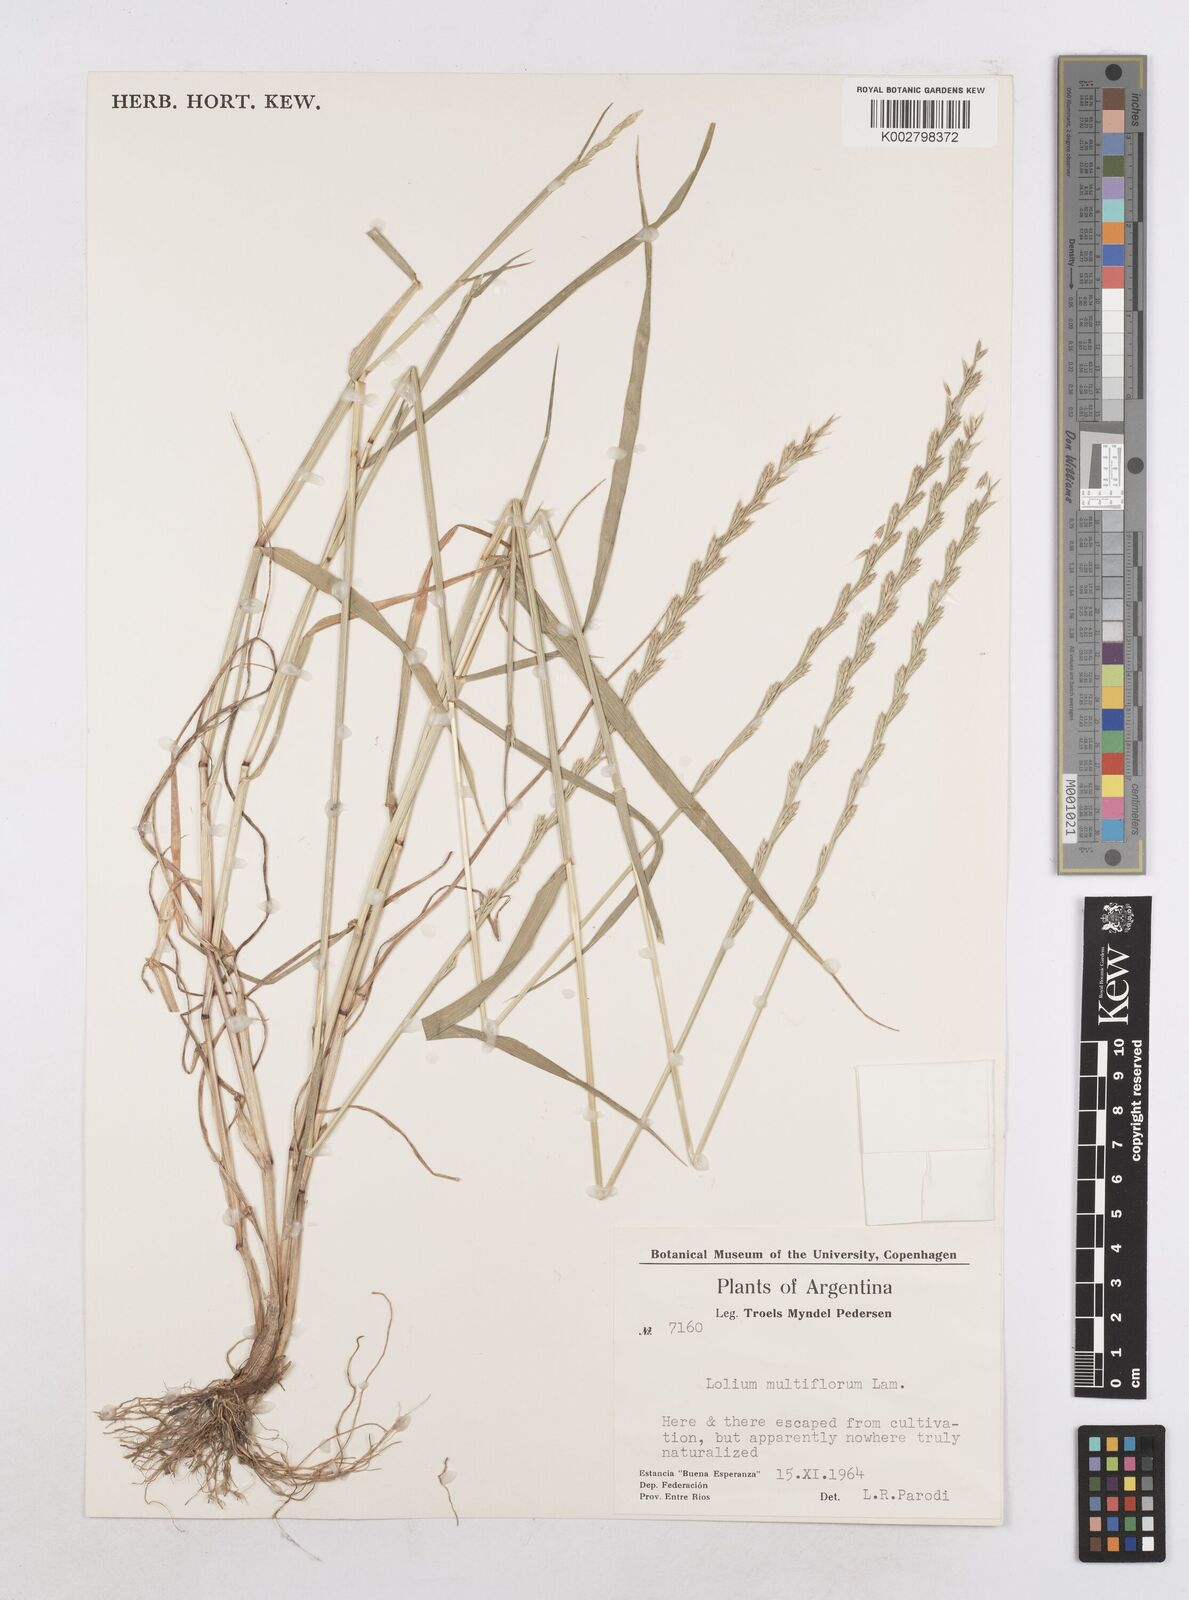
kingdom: Plantae
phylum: Tracheophyta
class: Liliopsida
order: Poales
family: Poaceae
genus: Lolium
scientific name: Lolium multiflorum
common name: Annual ryegrass
